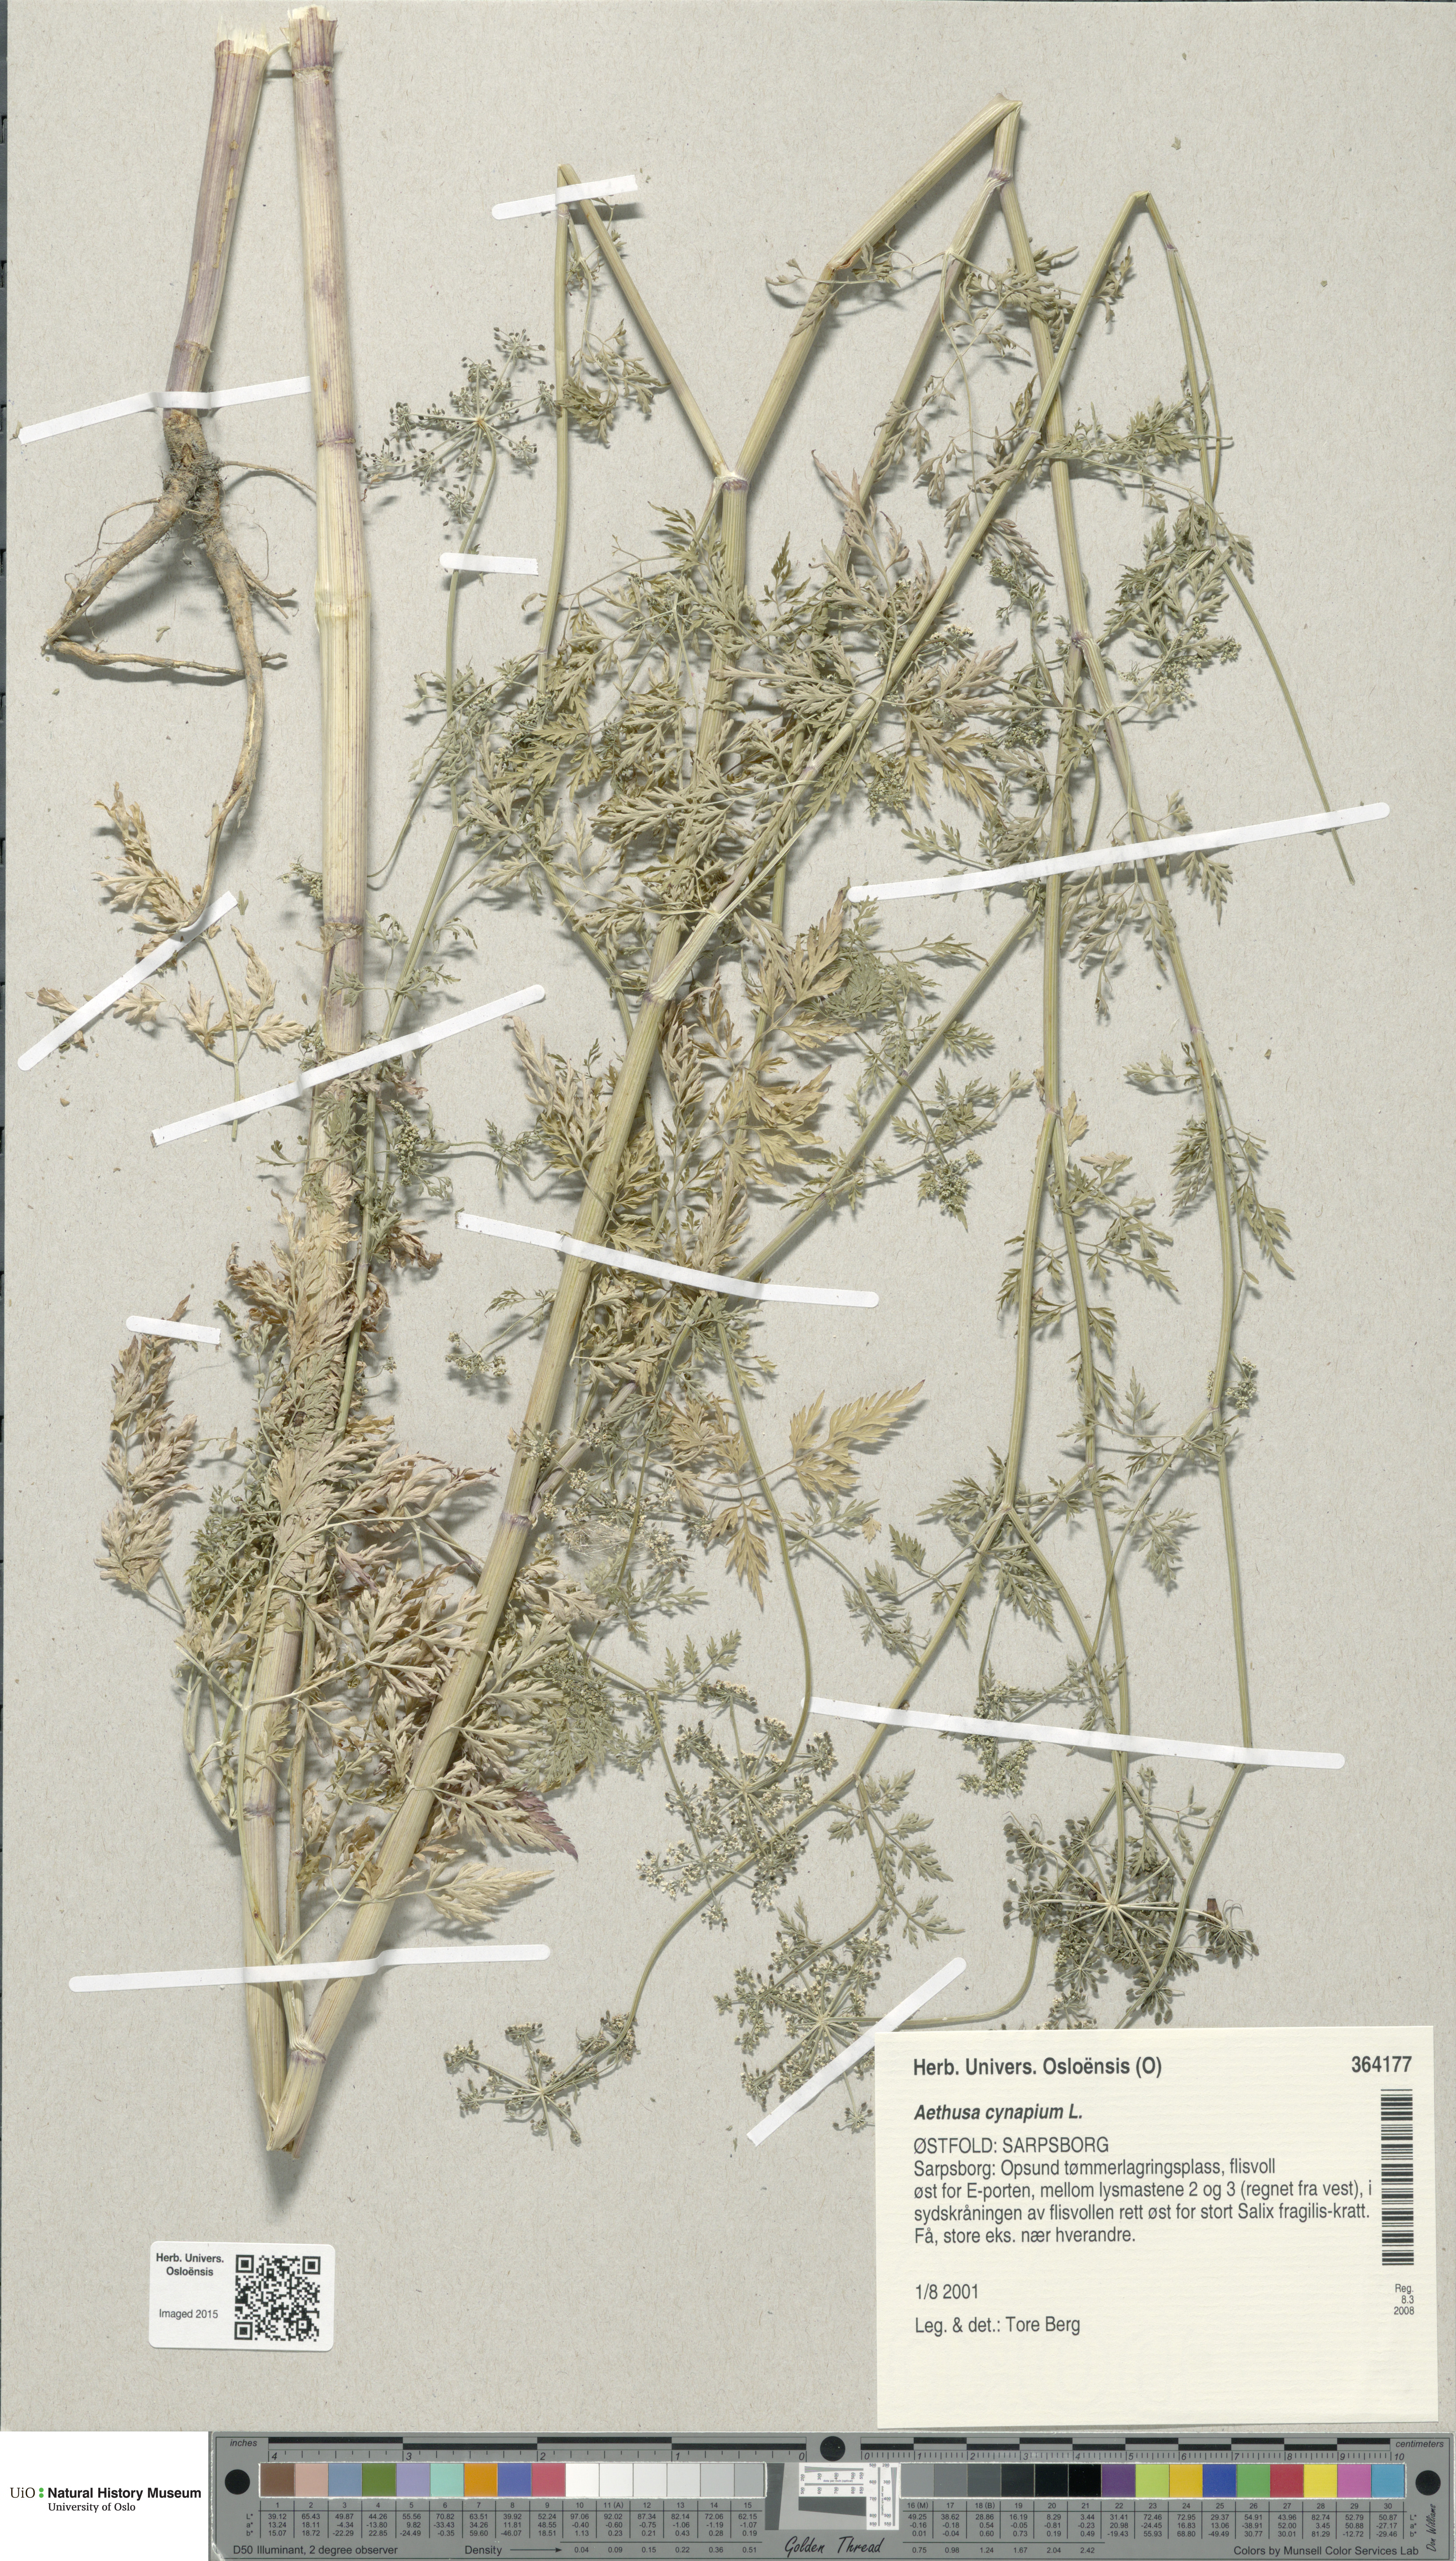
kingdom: Plantae
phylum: Tracheophyta
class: Magnoliopsida
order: Apiales
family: Apiaceae
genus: Aethusa
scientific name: Aethusa cynapium
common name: Fool's parsley
